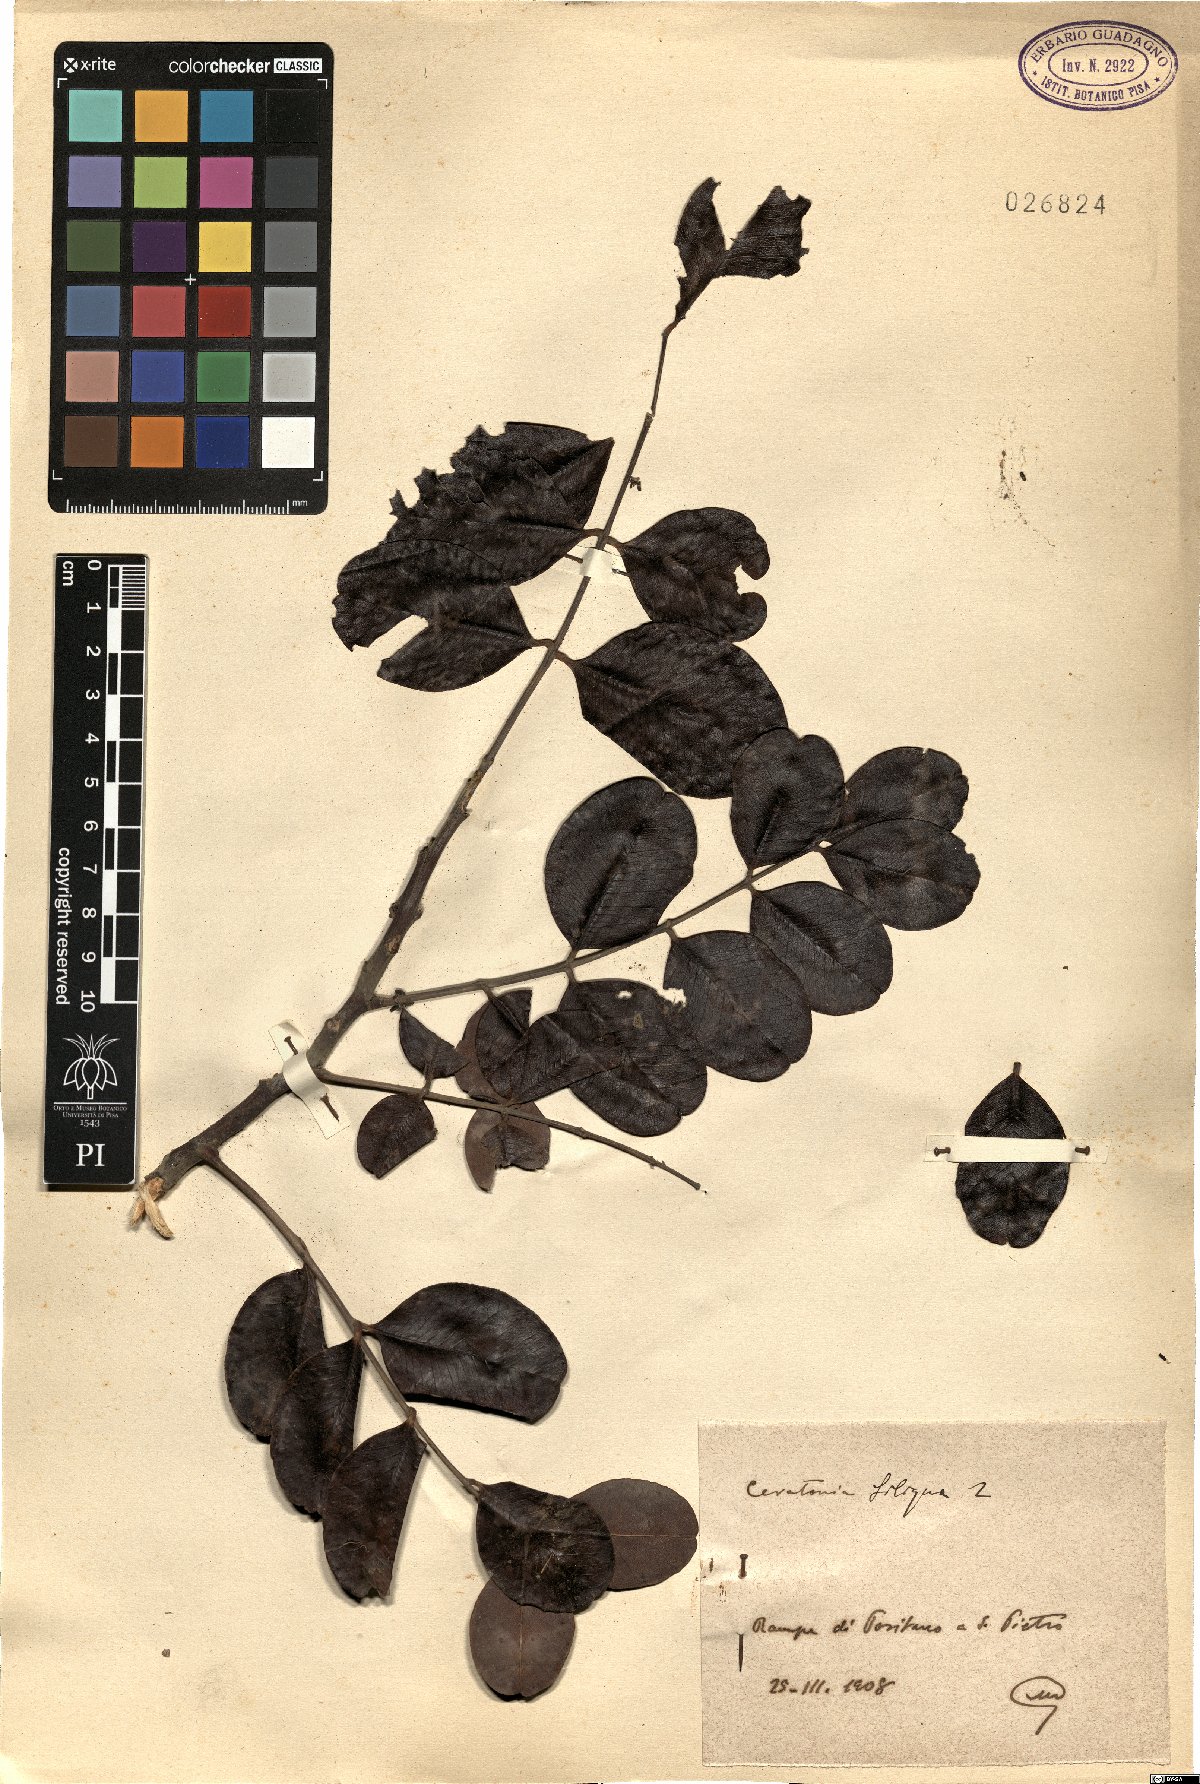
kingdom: Plantae
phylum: Tracheophyta
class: Magnoliopsida
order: Fabales
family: Fabaceae
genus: Ceratonia
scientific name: Ceratonia siliqua
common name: Carob
